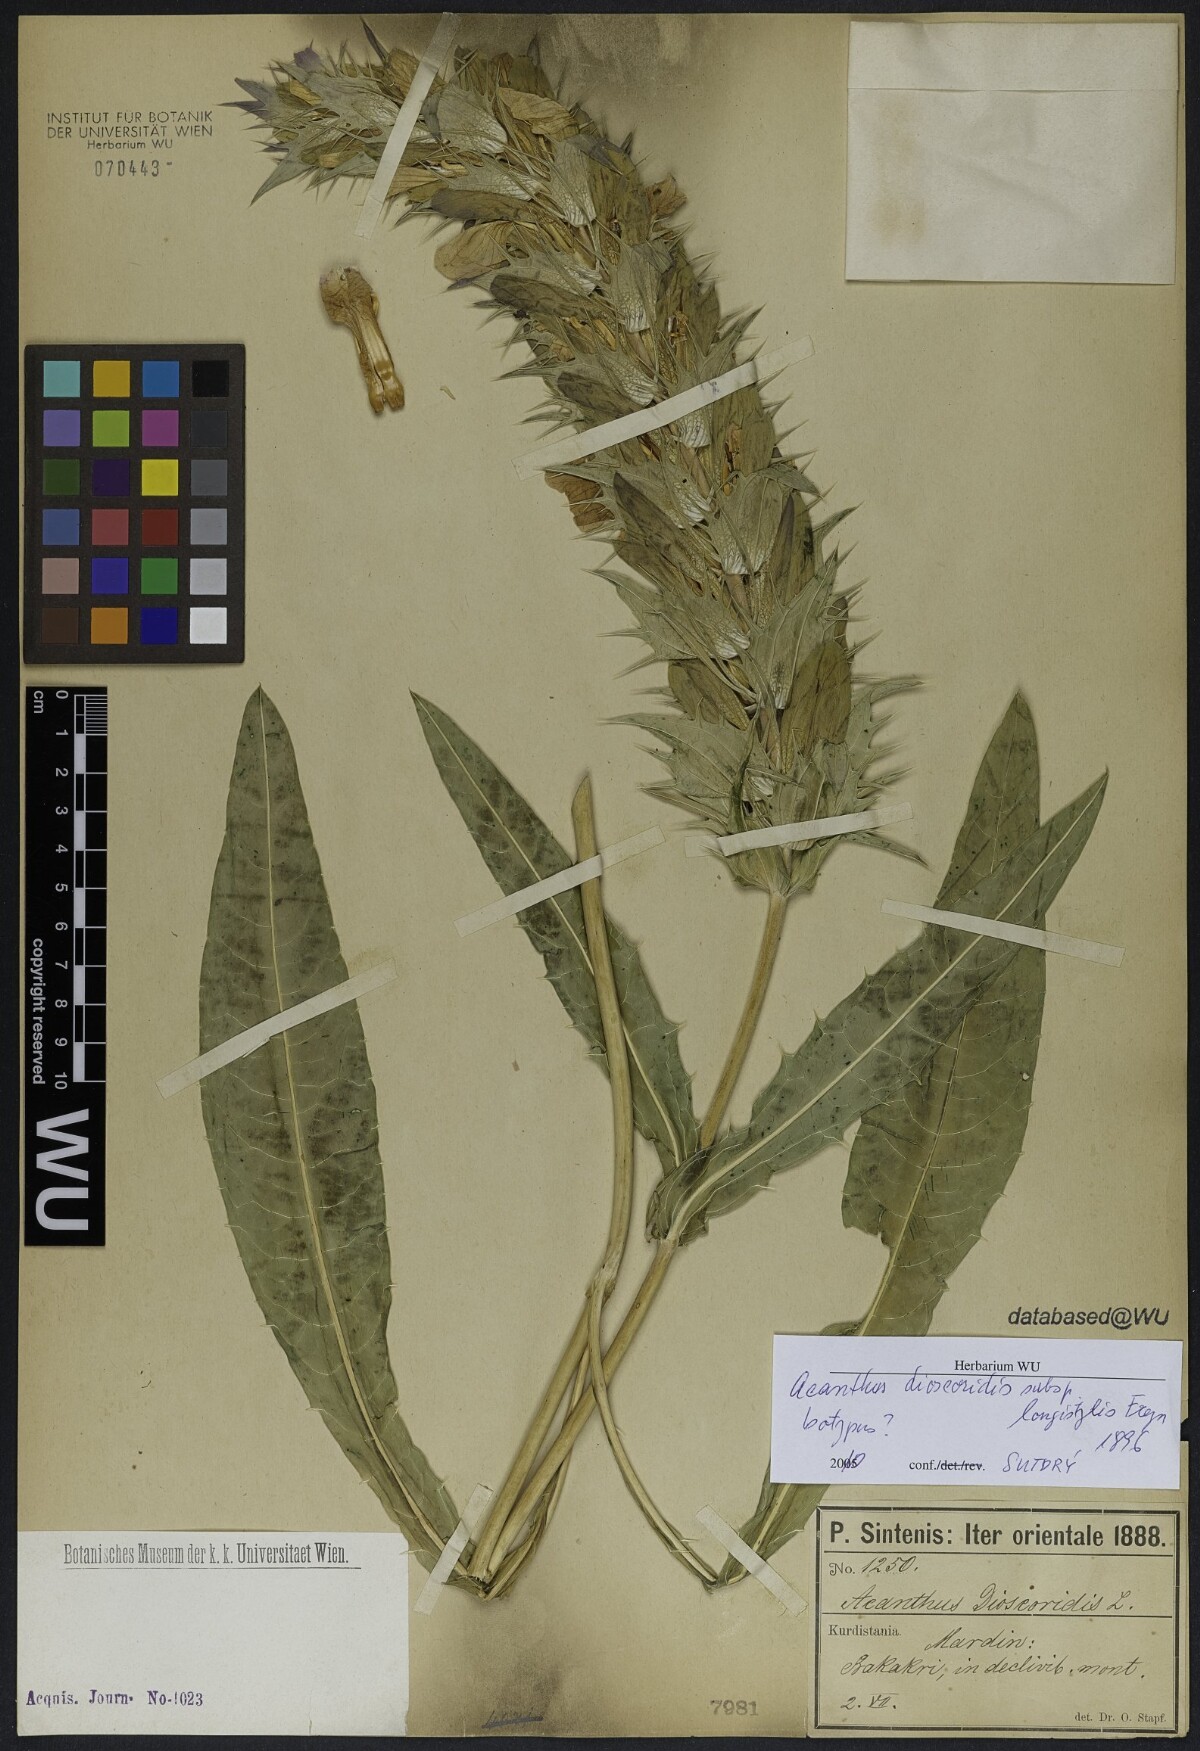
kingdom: Plantae
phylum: Tracheophyta
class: Magnoliopsida
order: Lamiales
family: Acanthaceae
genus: Acanthus
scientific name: Acanthus dioscoridis
